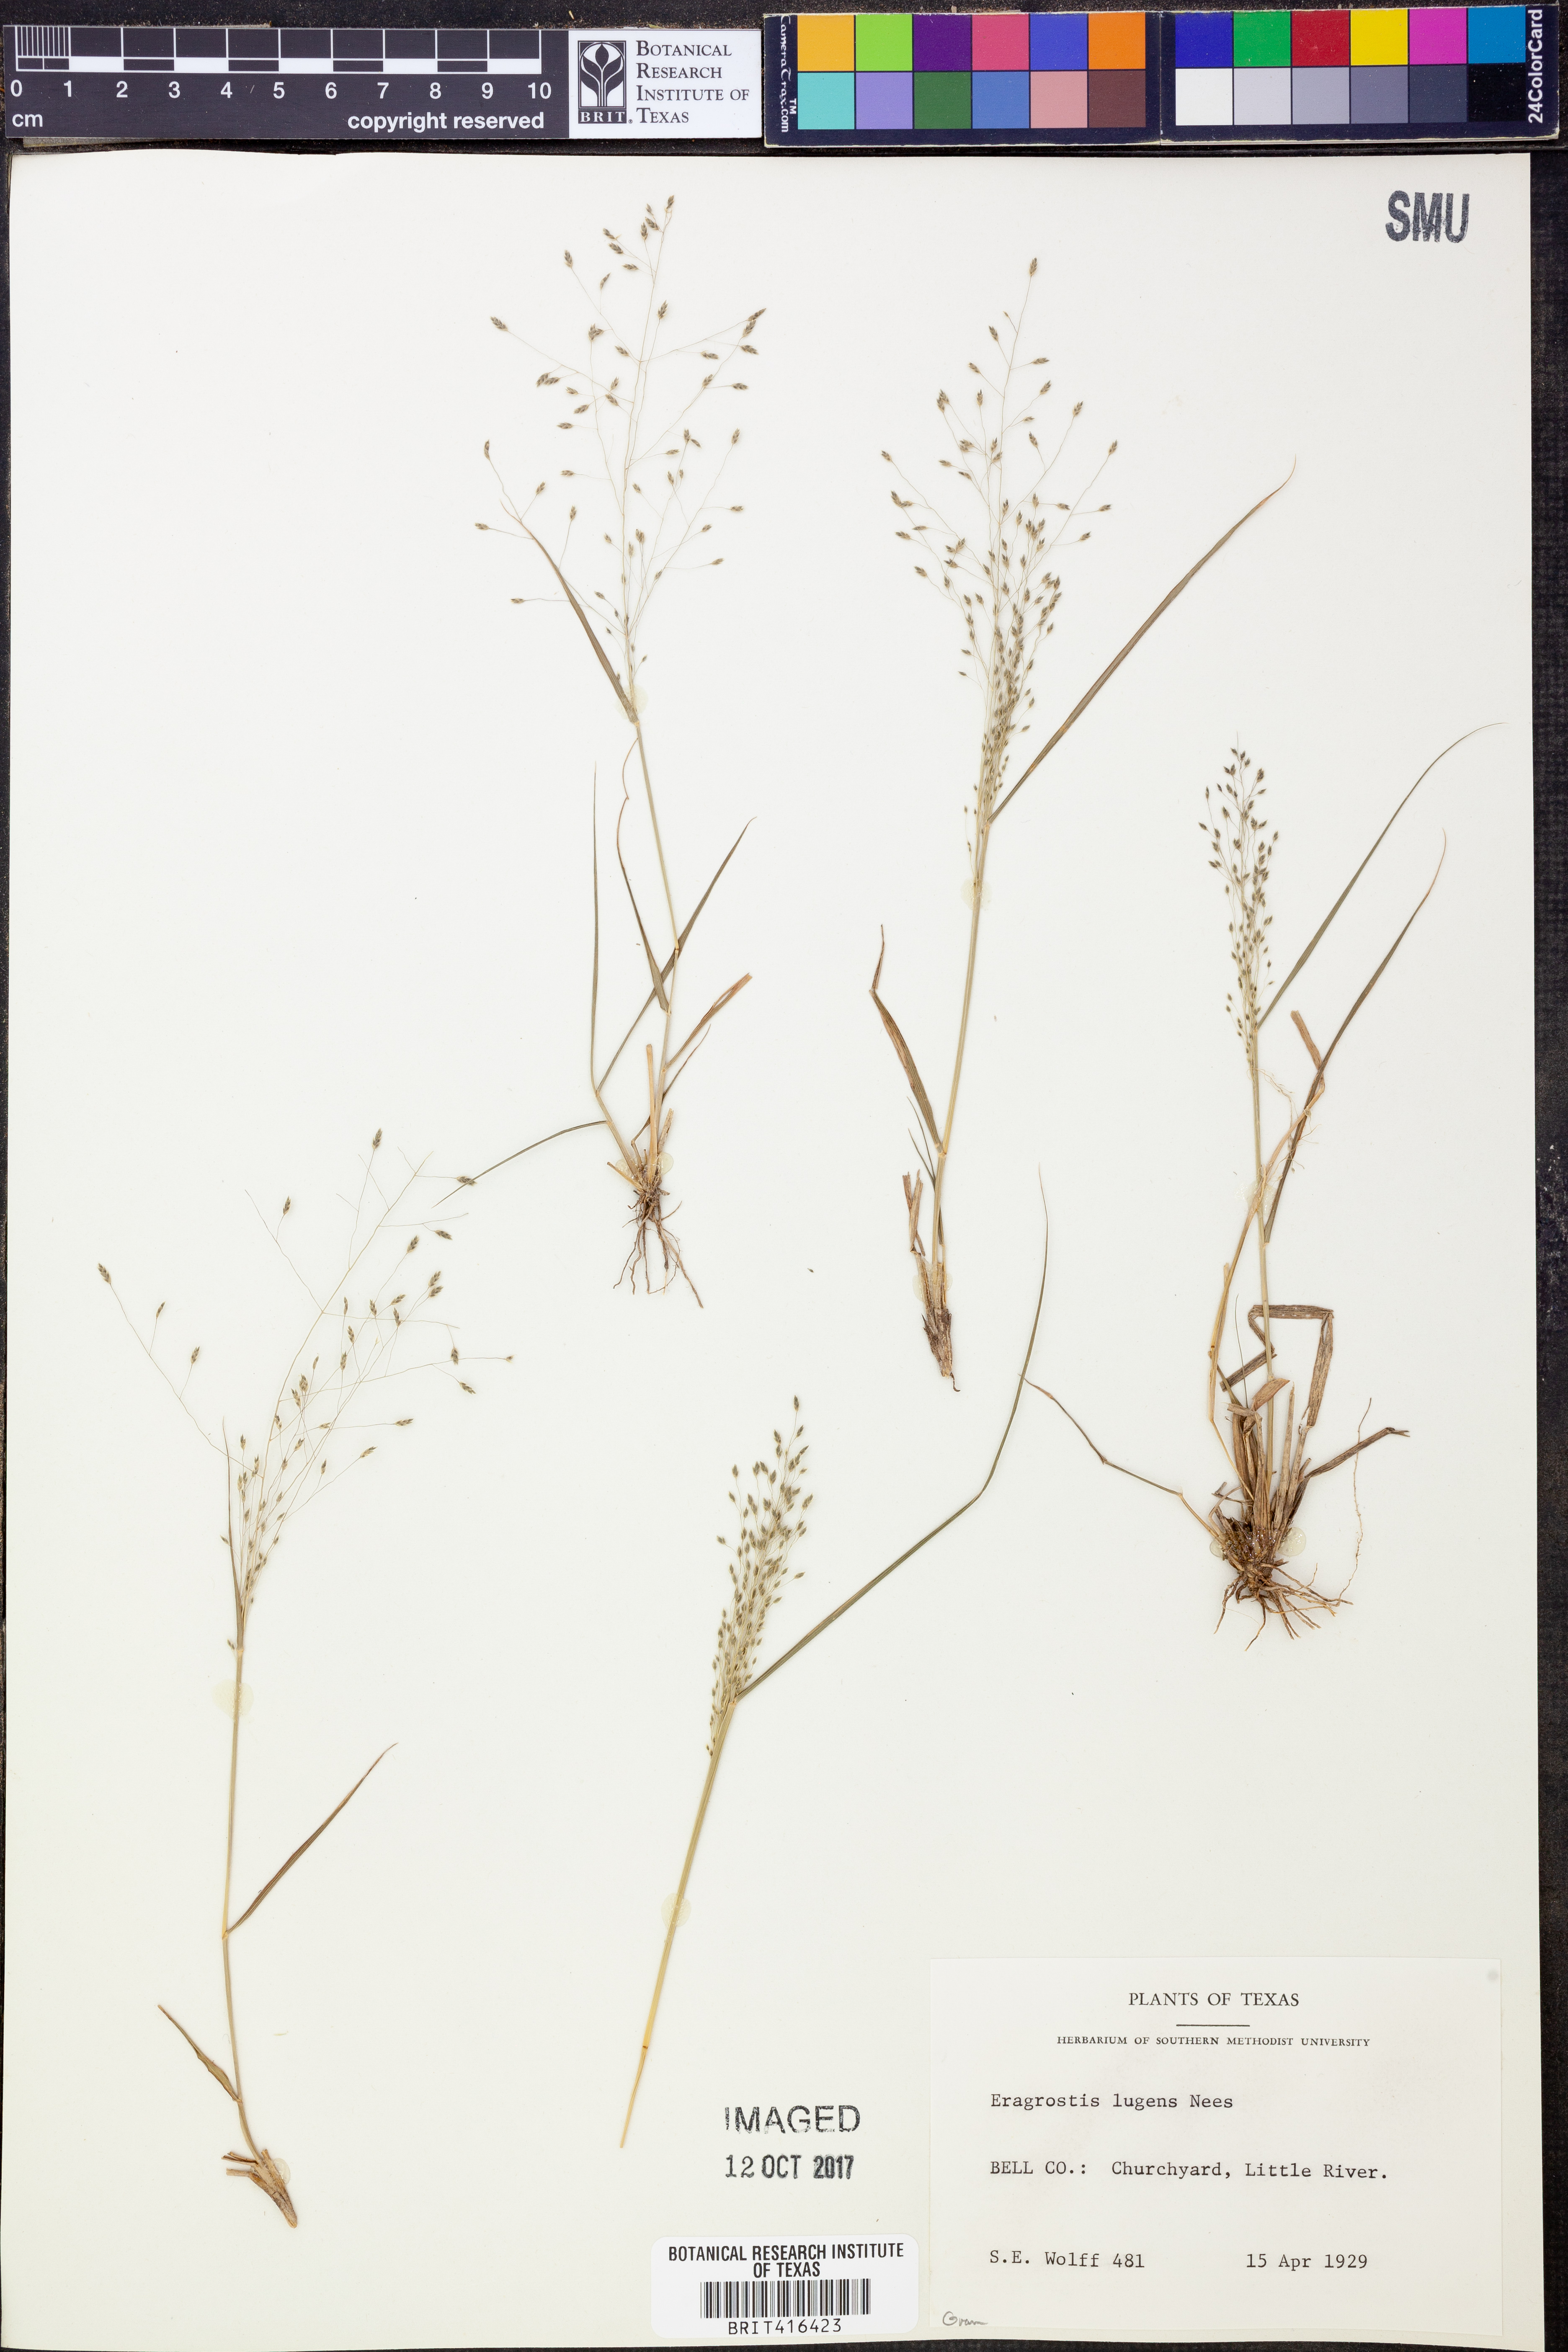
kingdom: Plantae
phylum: Tracheophyta
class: Liliopsida
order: Poales
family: Poaceae
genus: Eragrostis
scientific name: Eragrostis capillaris
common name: Hair-like lovegrass
